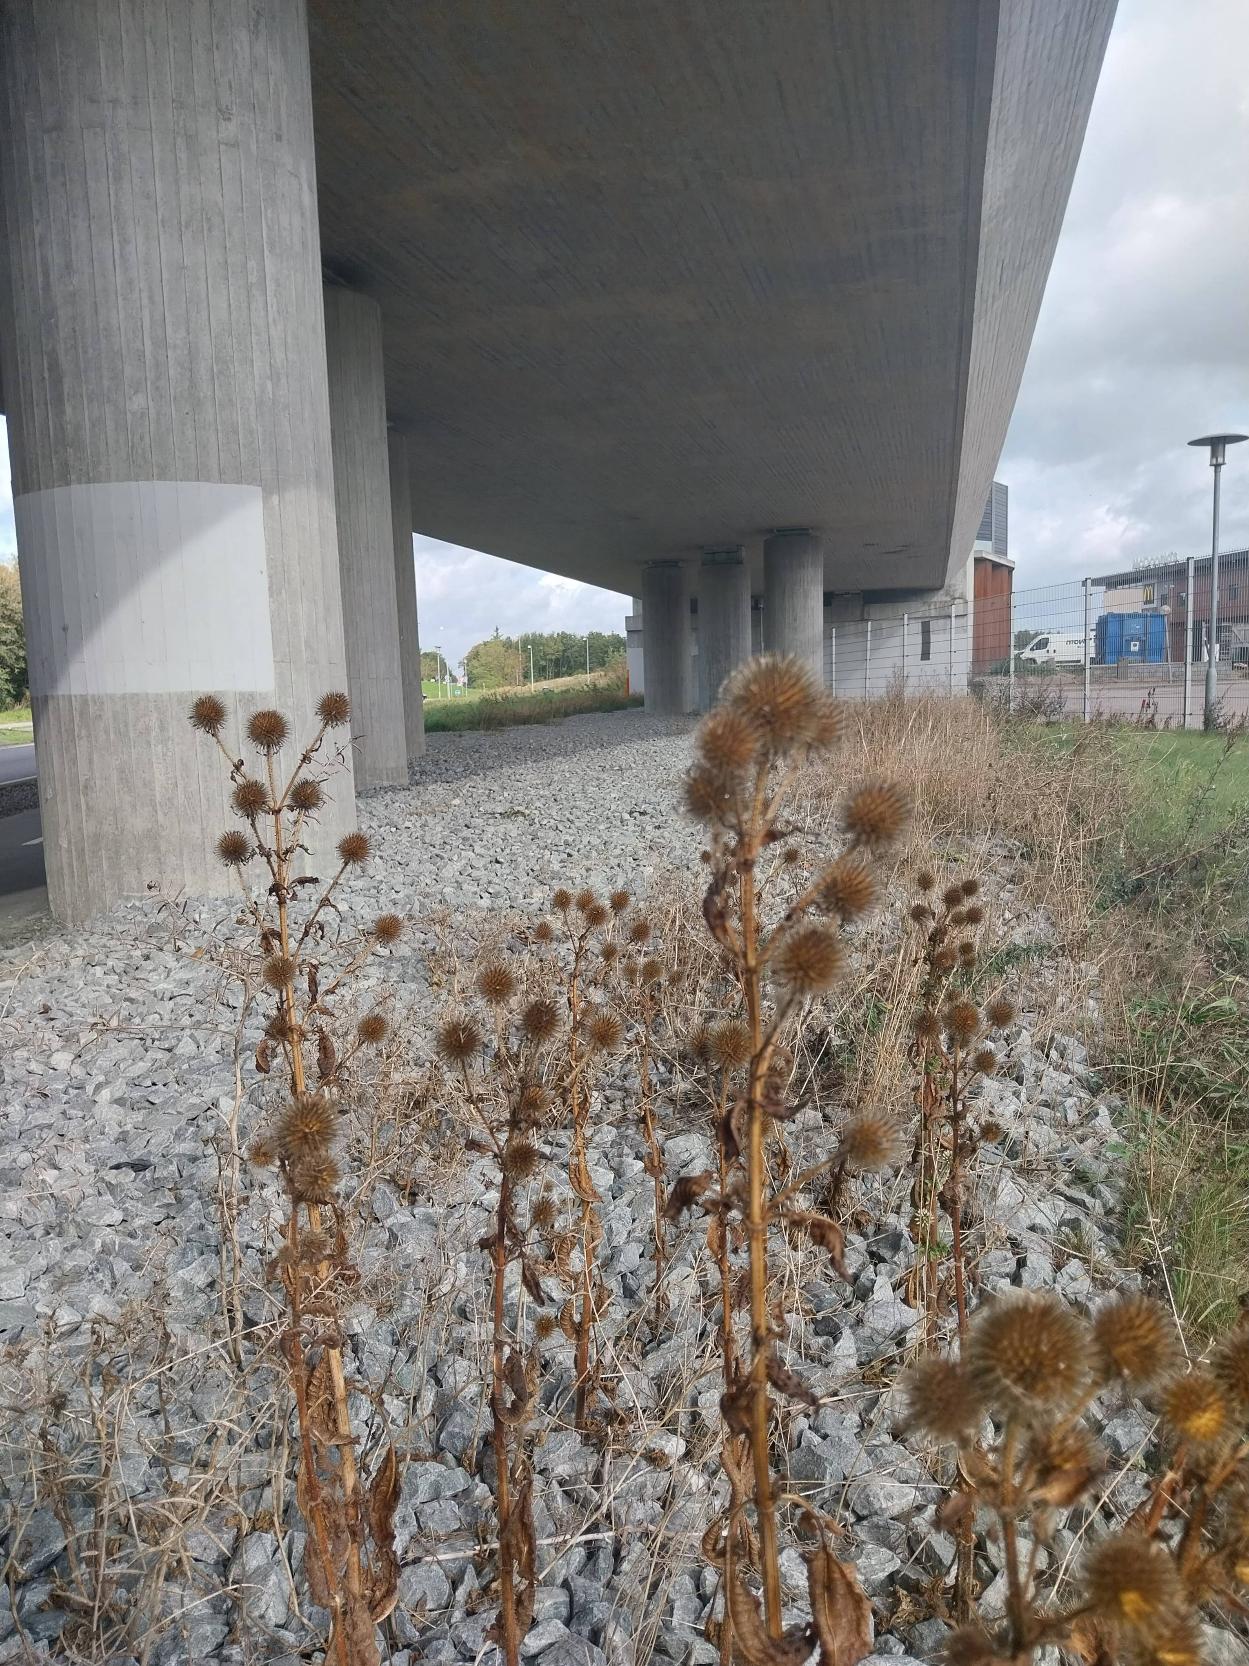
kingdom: Plantae
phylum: Tracheophyta
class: Magnoliopsida
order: Dipsacales
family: Caprifoliaceae
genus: Dipsacus
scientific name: Dipsacus strigosus
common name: Pindsvin-kartebolle
